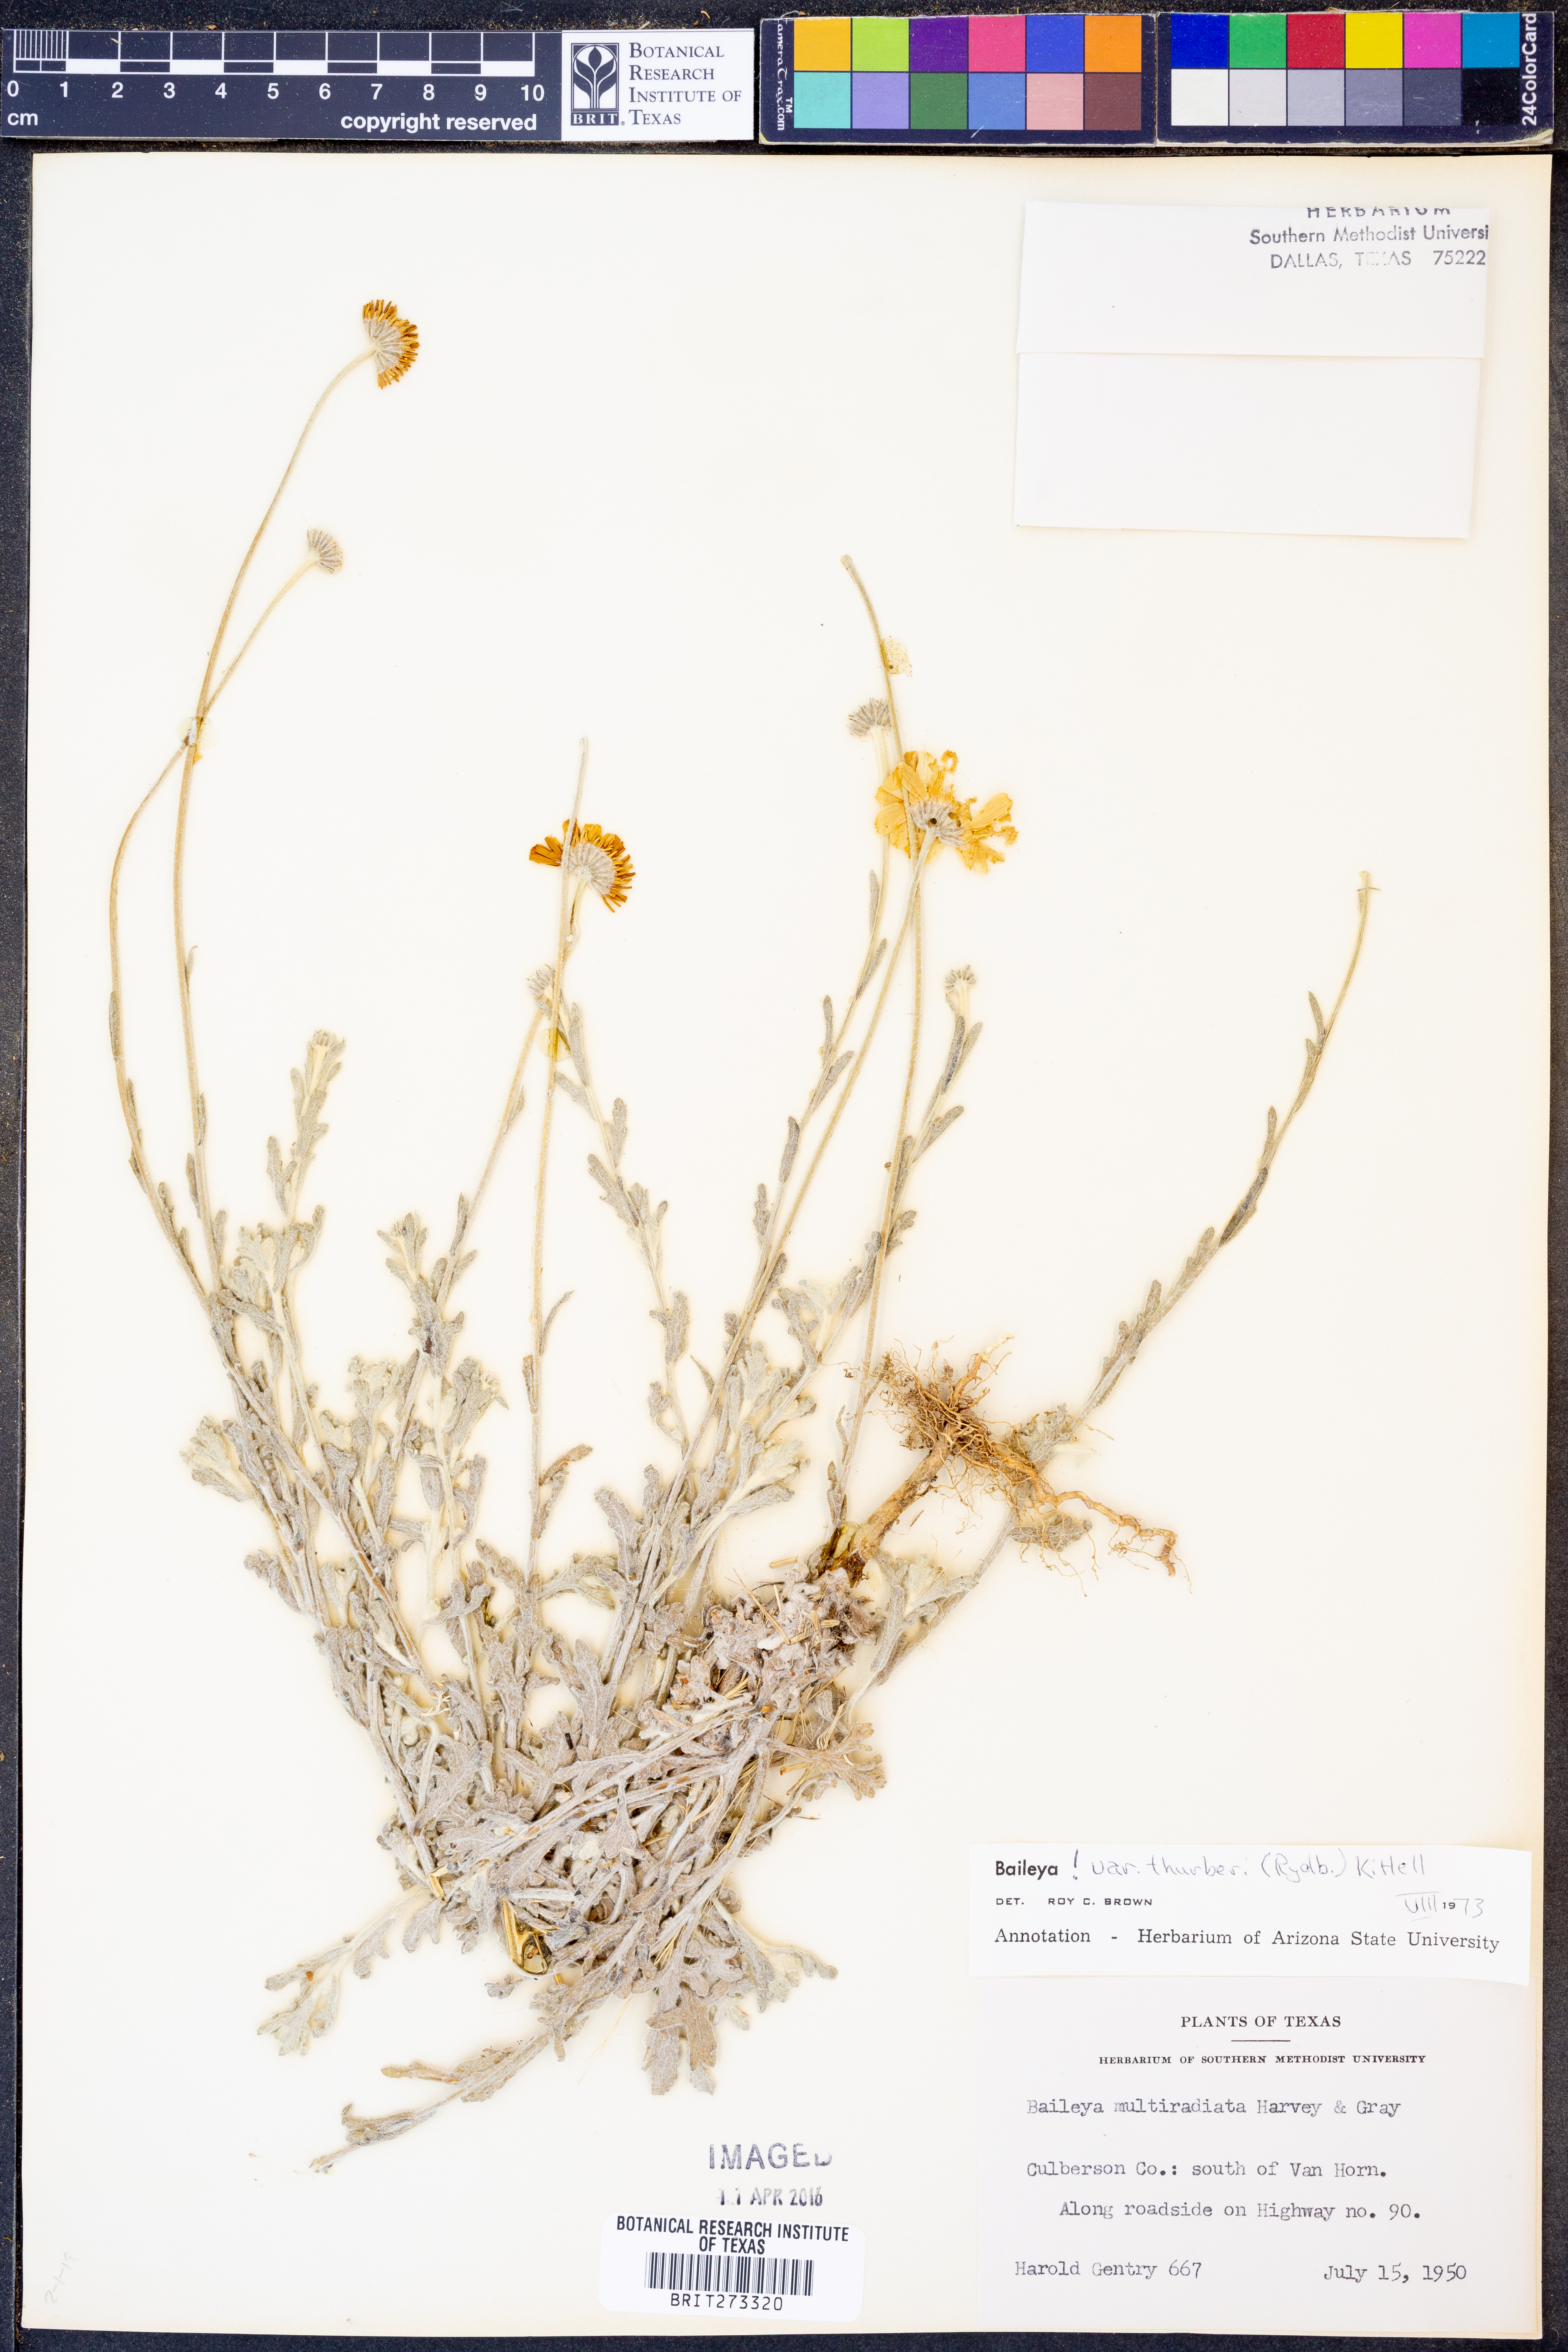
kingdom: Plantae
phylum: Tracheophyta
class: Magnoliopsida
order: Asterales
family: Asteraceae
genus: Baileya
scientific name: Baileya multiradiata
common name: Desert-marigold
